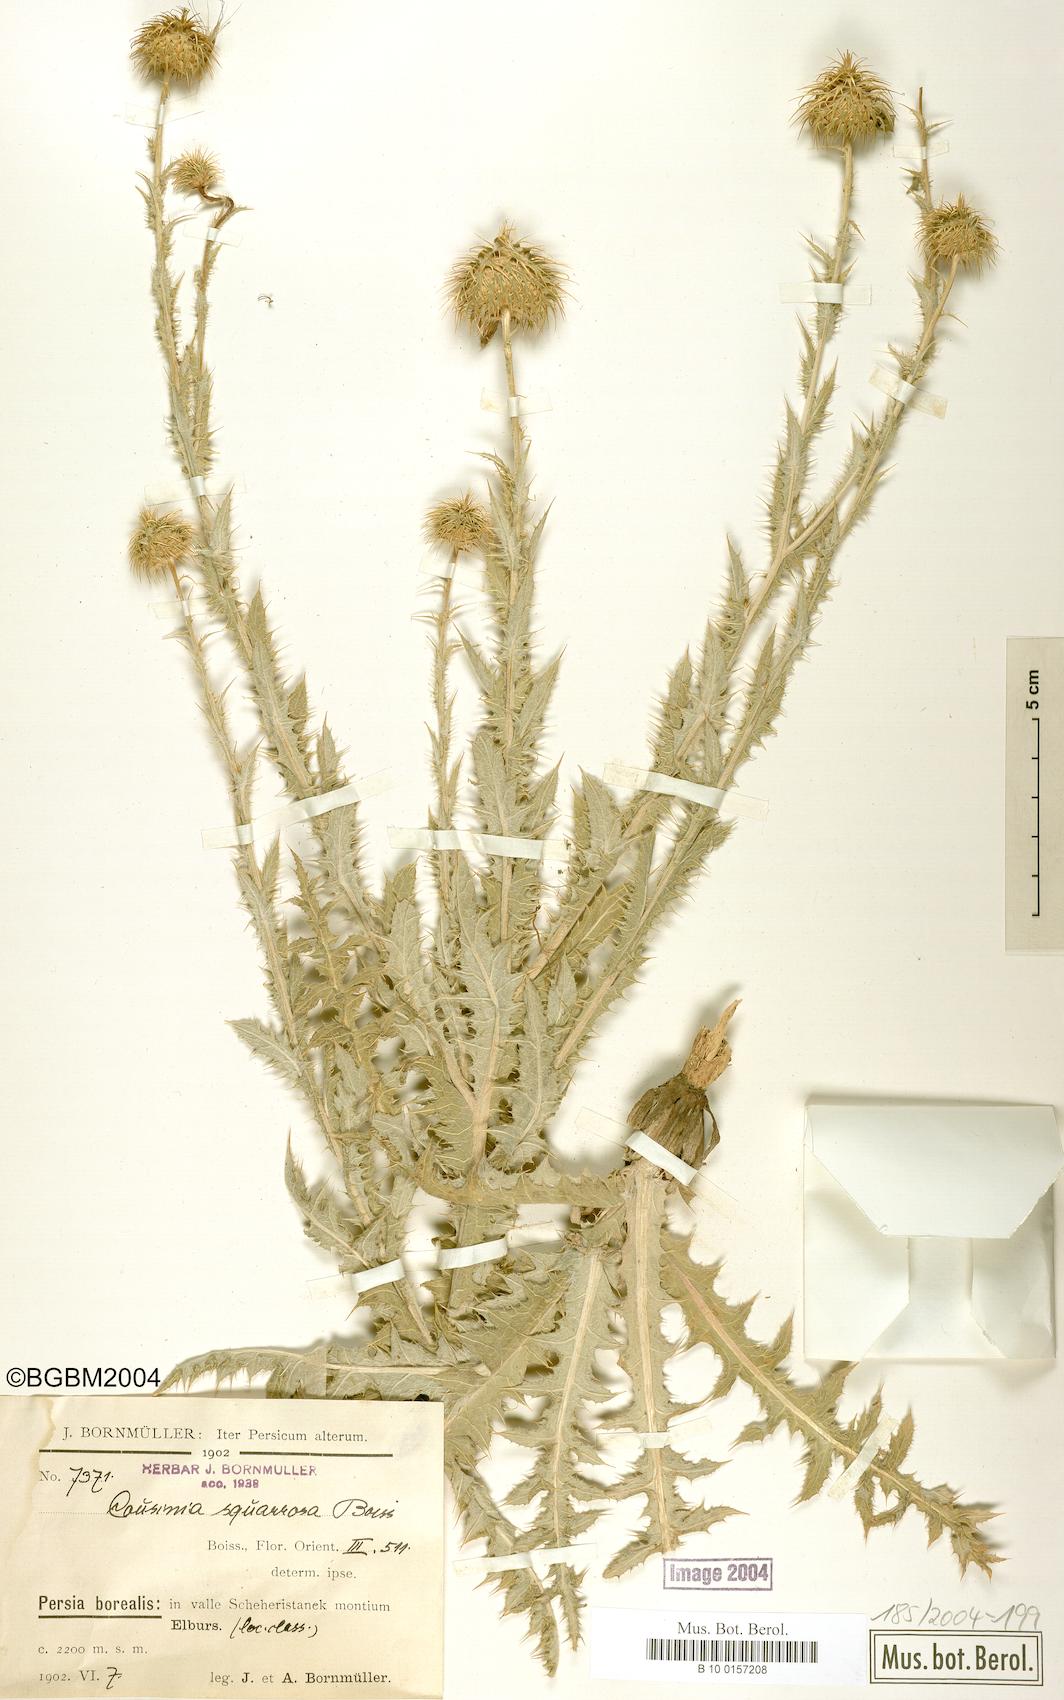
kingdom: Plantae
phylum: Tracheophyta
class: Magnoliopsida
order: Asterales
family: Asteraceae
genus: Cousinia
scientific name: Cousinia calocephala
